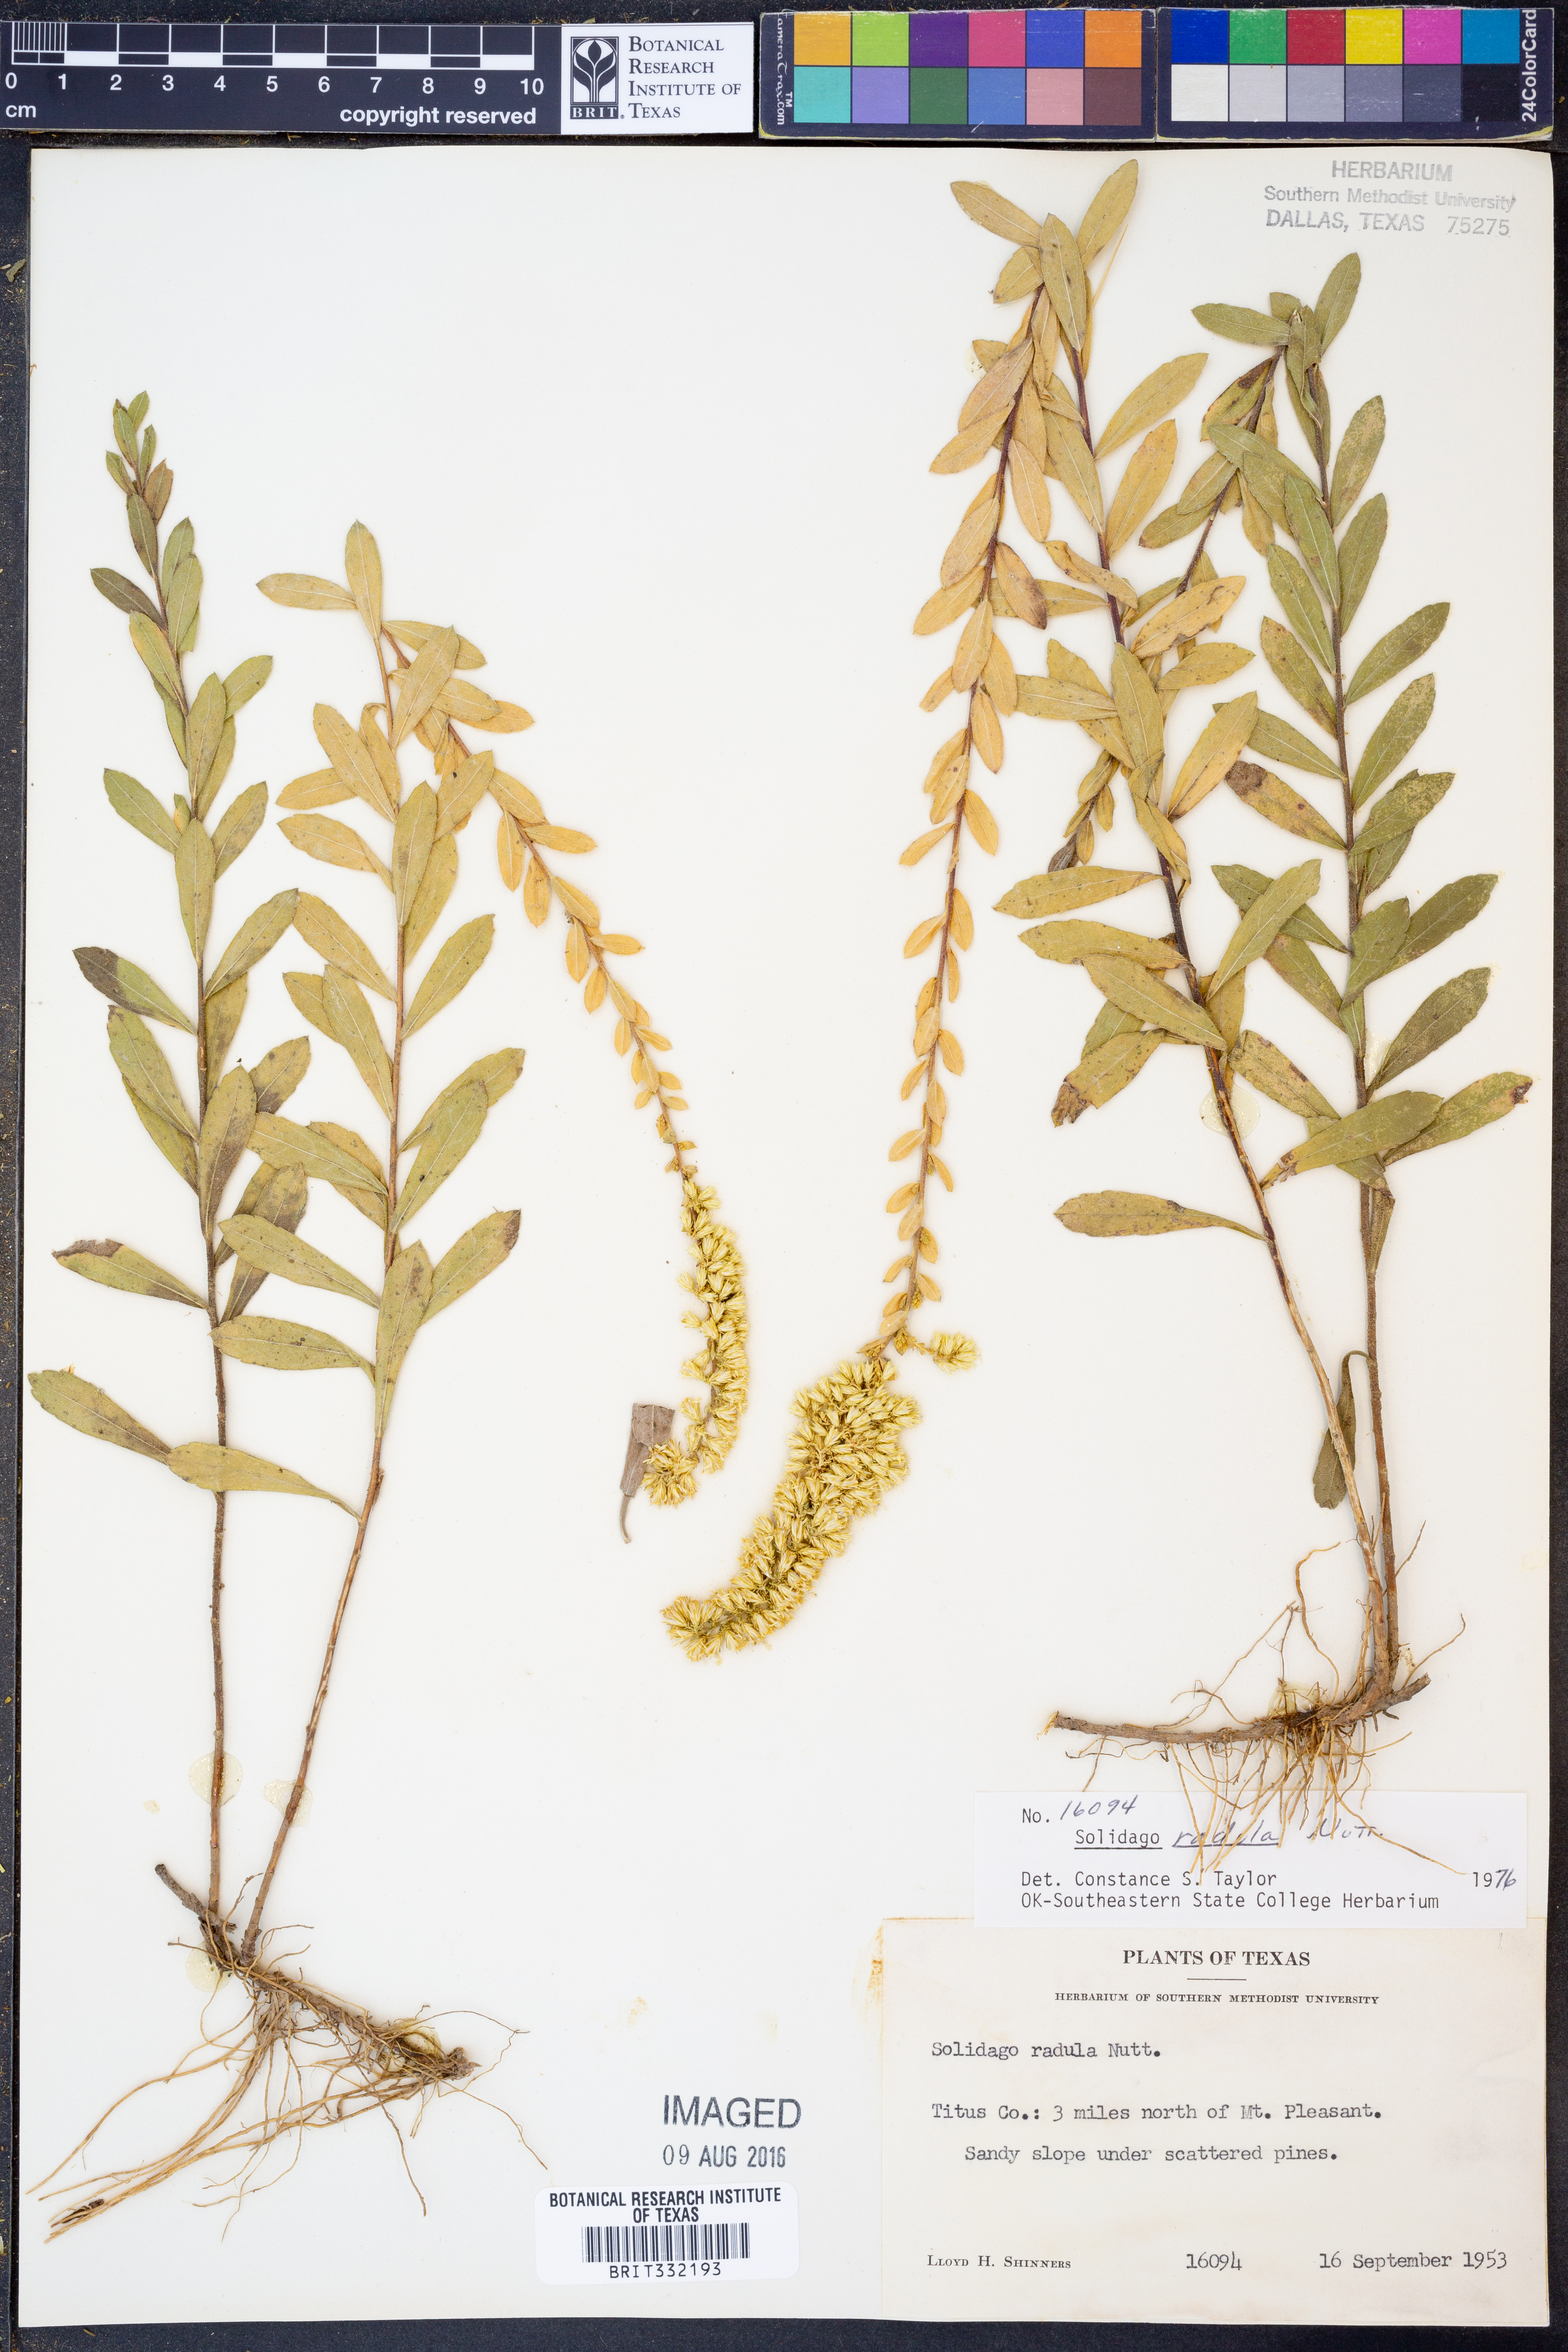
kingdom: Plantae
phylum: Tracheophyta
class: Magnoliopsida
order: Asterales
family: Asteraceae
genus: Solidago
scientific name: Solidago radula
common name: Western rough goldenrod
